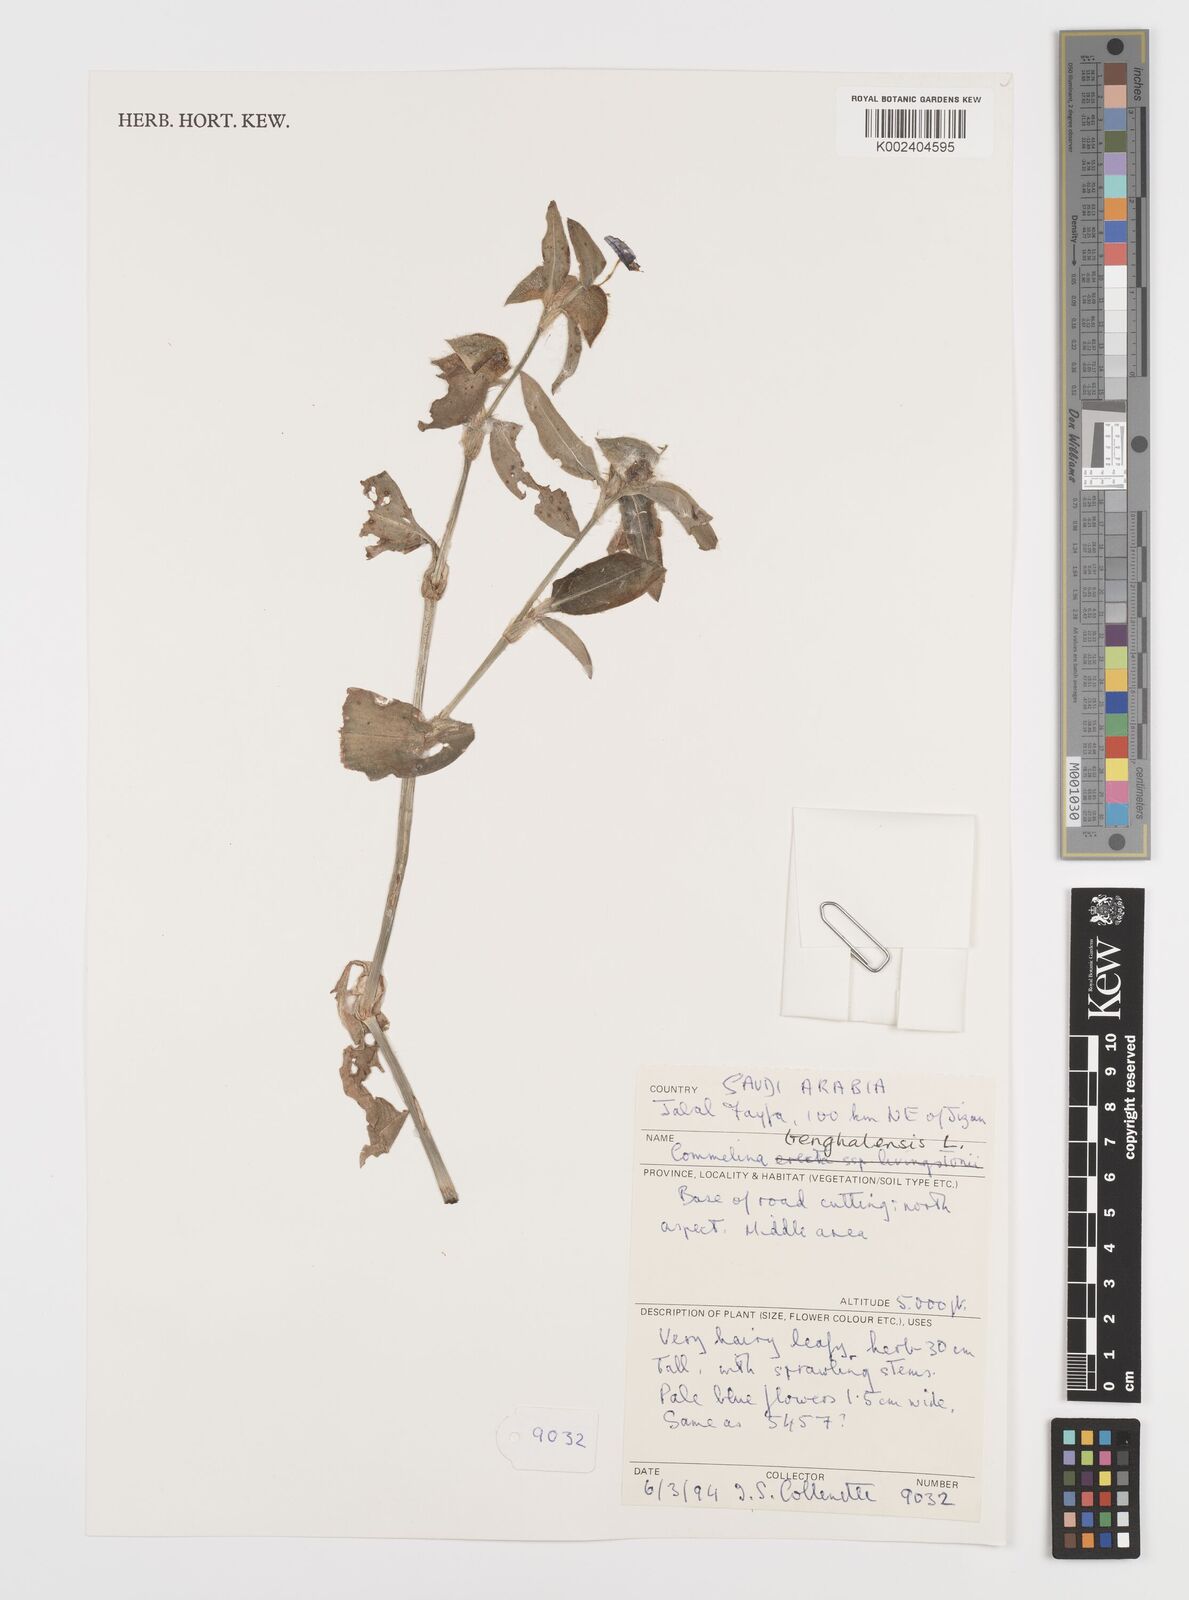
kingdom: Plantae
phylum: Tracheophyta
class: Liliopsida
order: Commelinales
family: Commelinaceae
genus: Commelina
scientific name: Commelina benghalensis
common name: Jio
